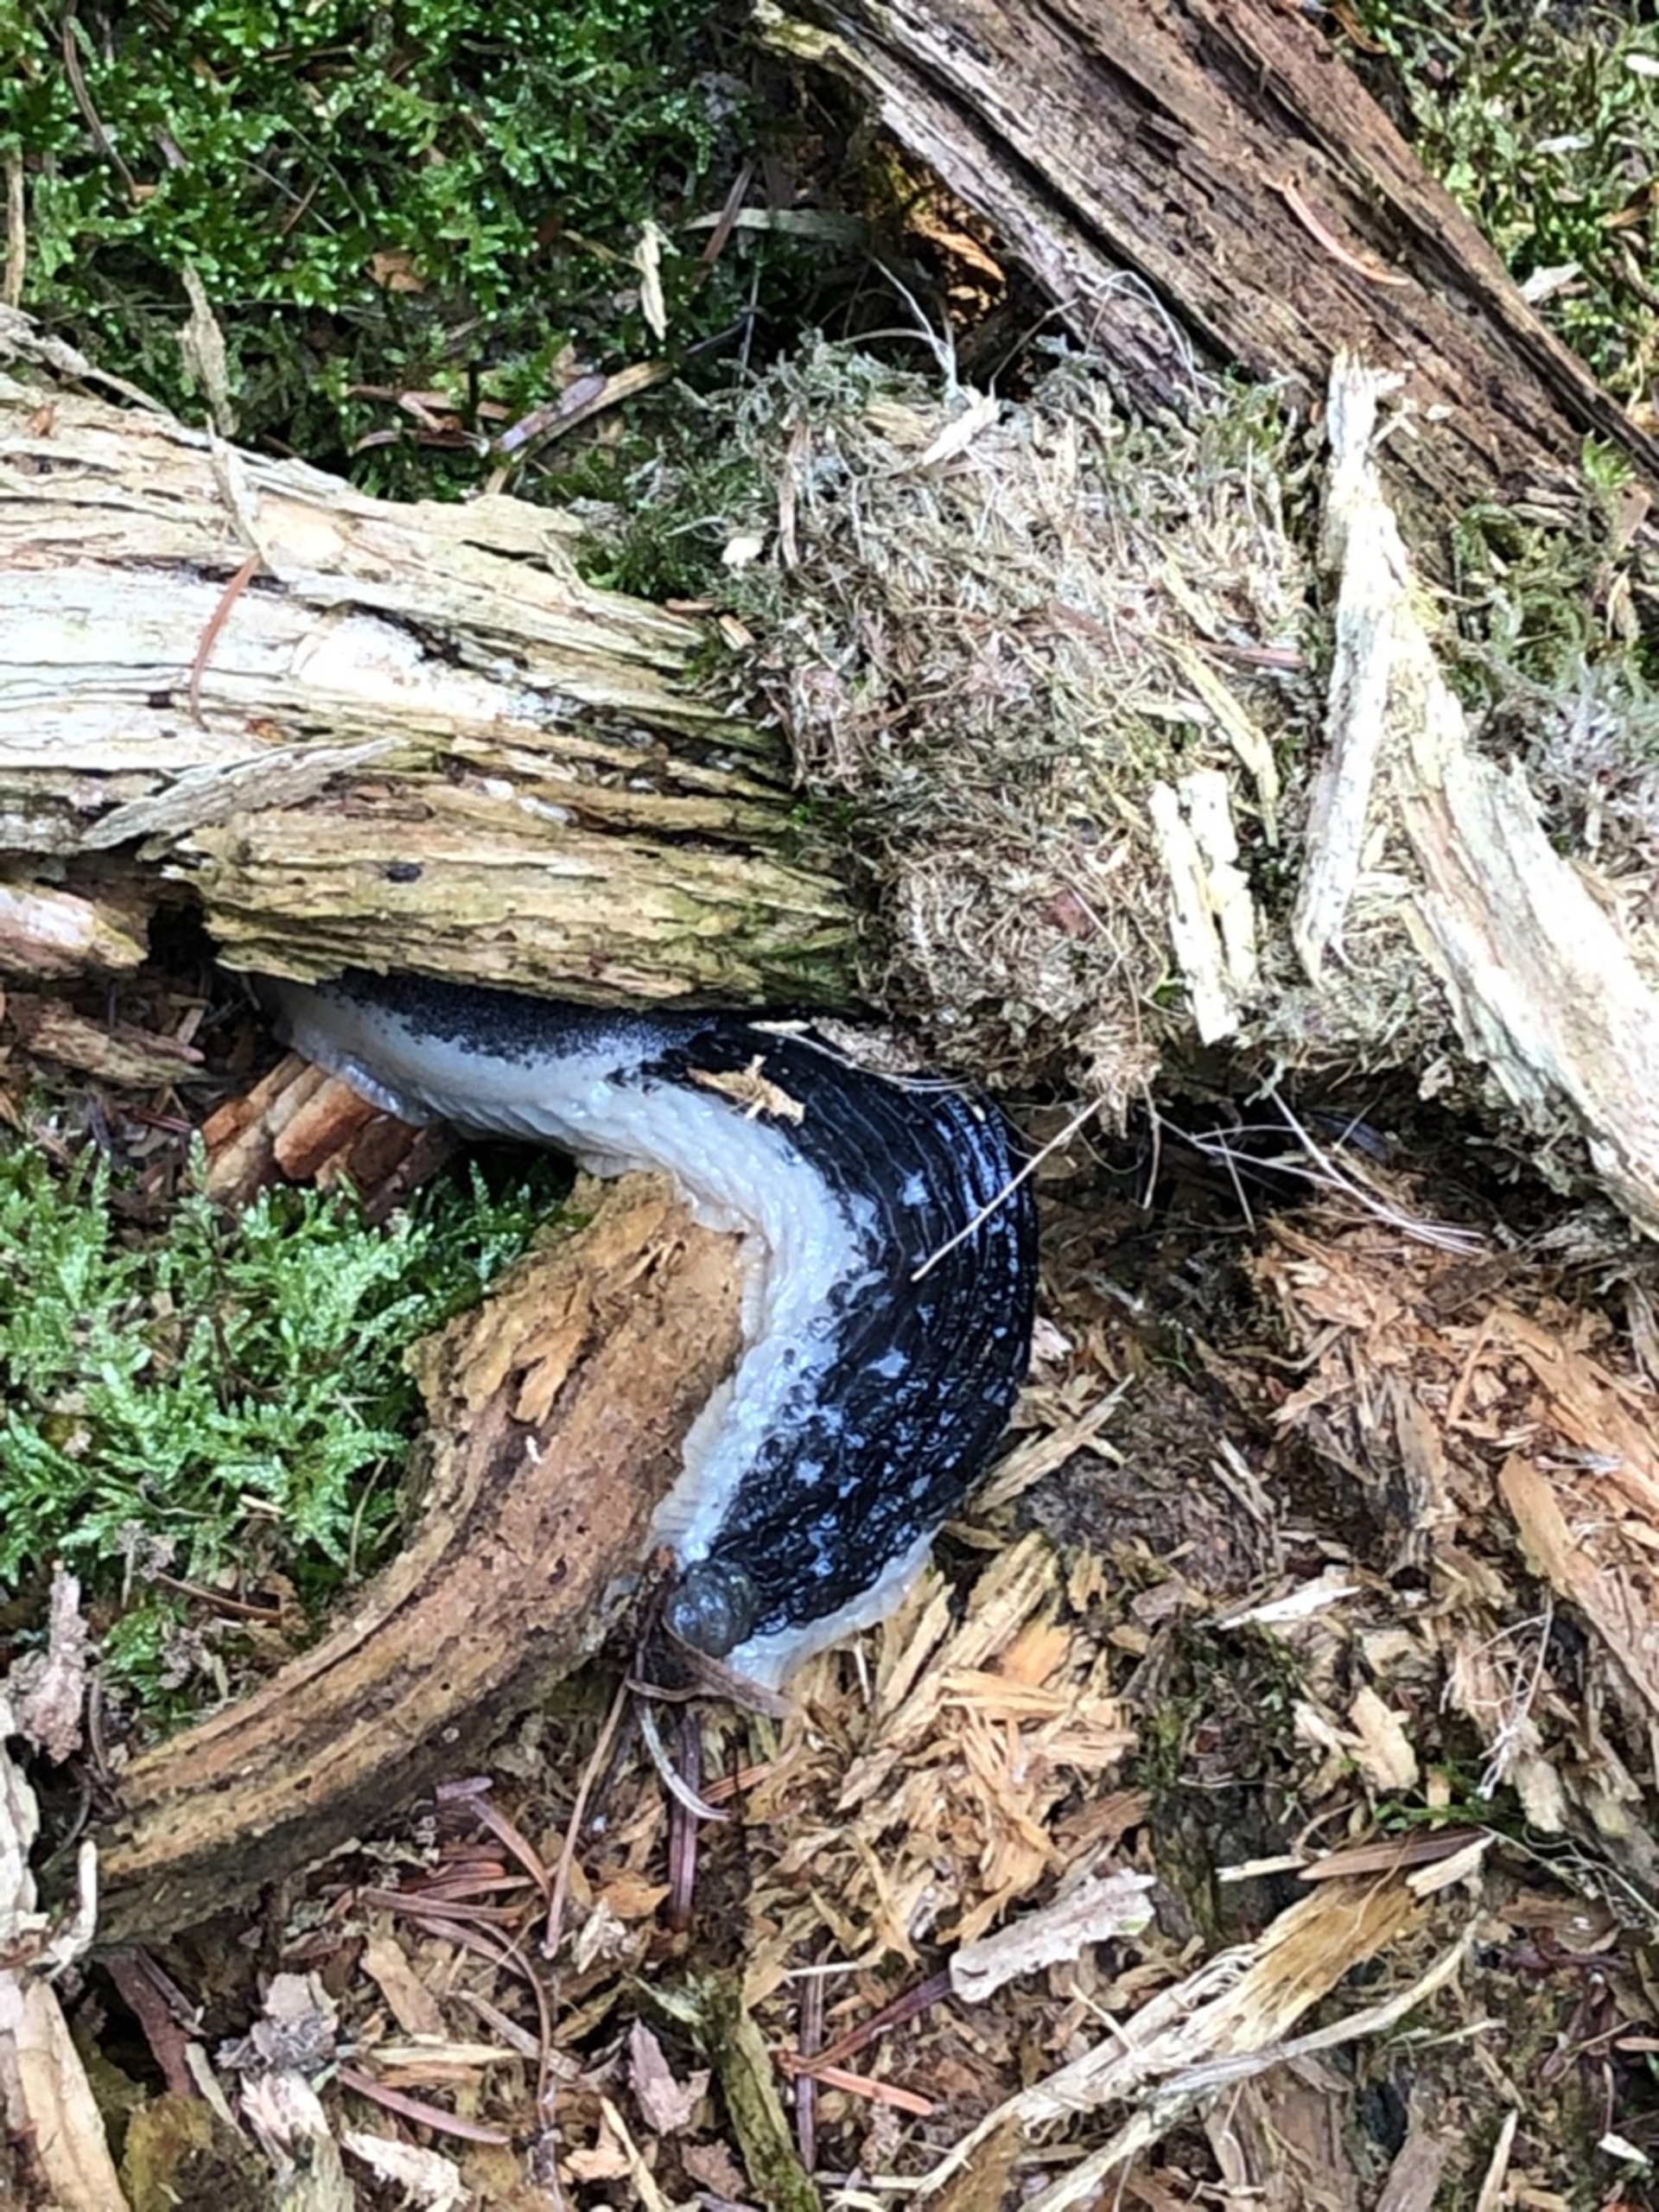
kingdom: Animalia
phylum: Mollusca
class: Gastropoda
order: Stylommatophora
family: Arionidae
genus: Arion
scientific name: Arion ater
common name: Sort skovsnegl
